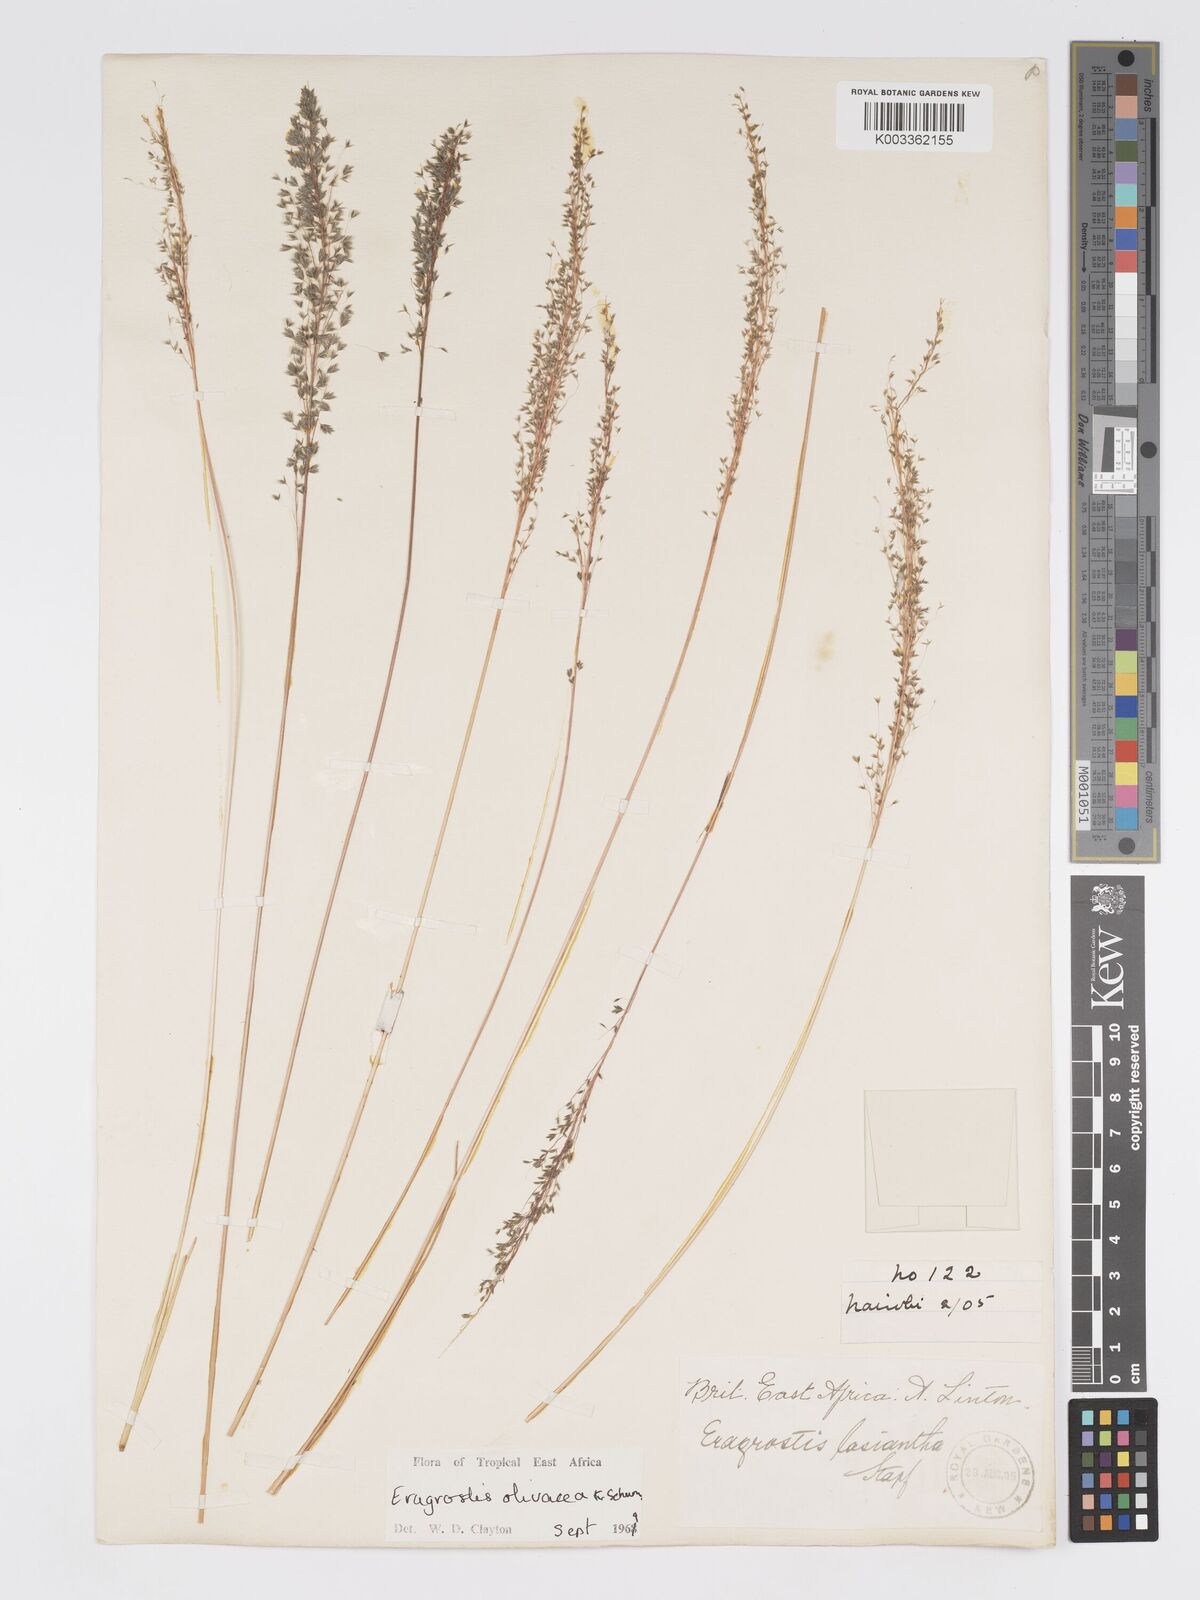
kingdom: Plantae
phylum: Tracheophyta
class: Liliopsida
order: Poales
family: Poaceae
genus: Eragrostis
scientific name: Eragrostis olivacea
